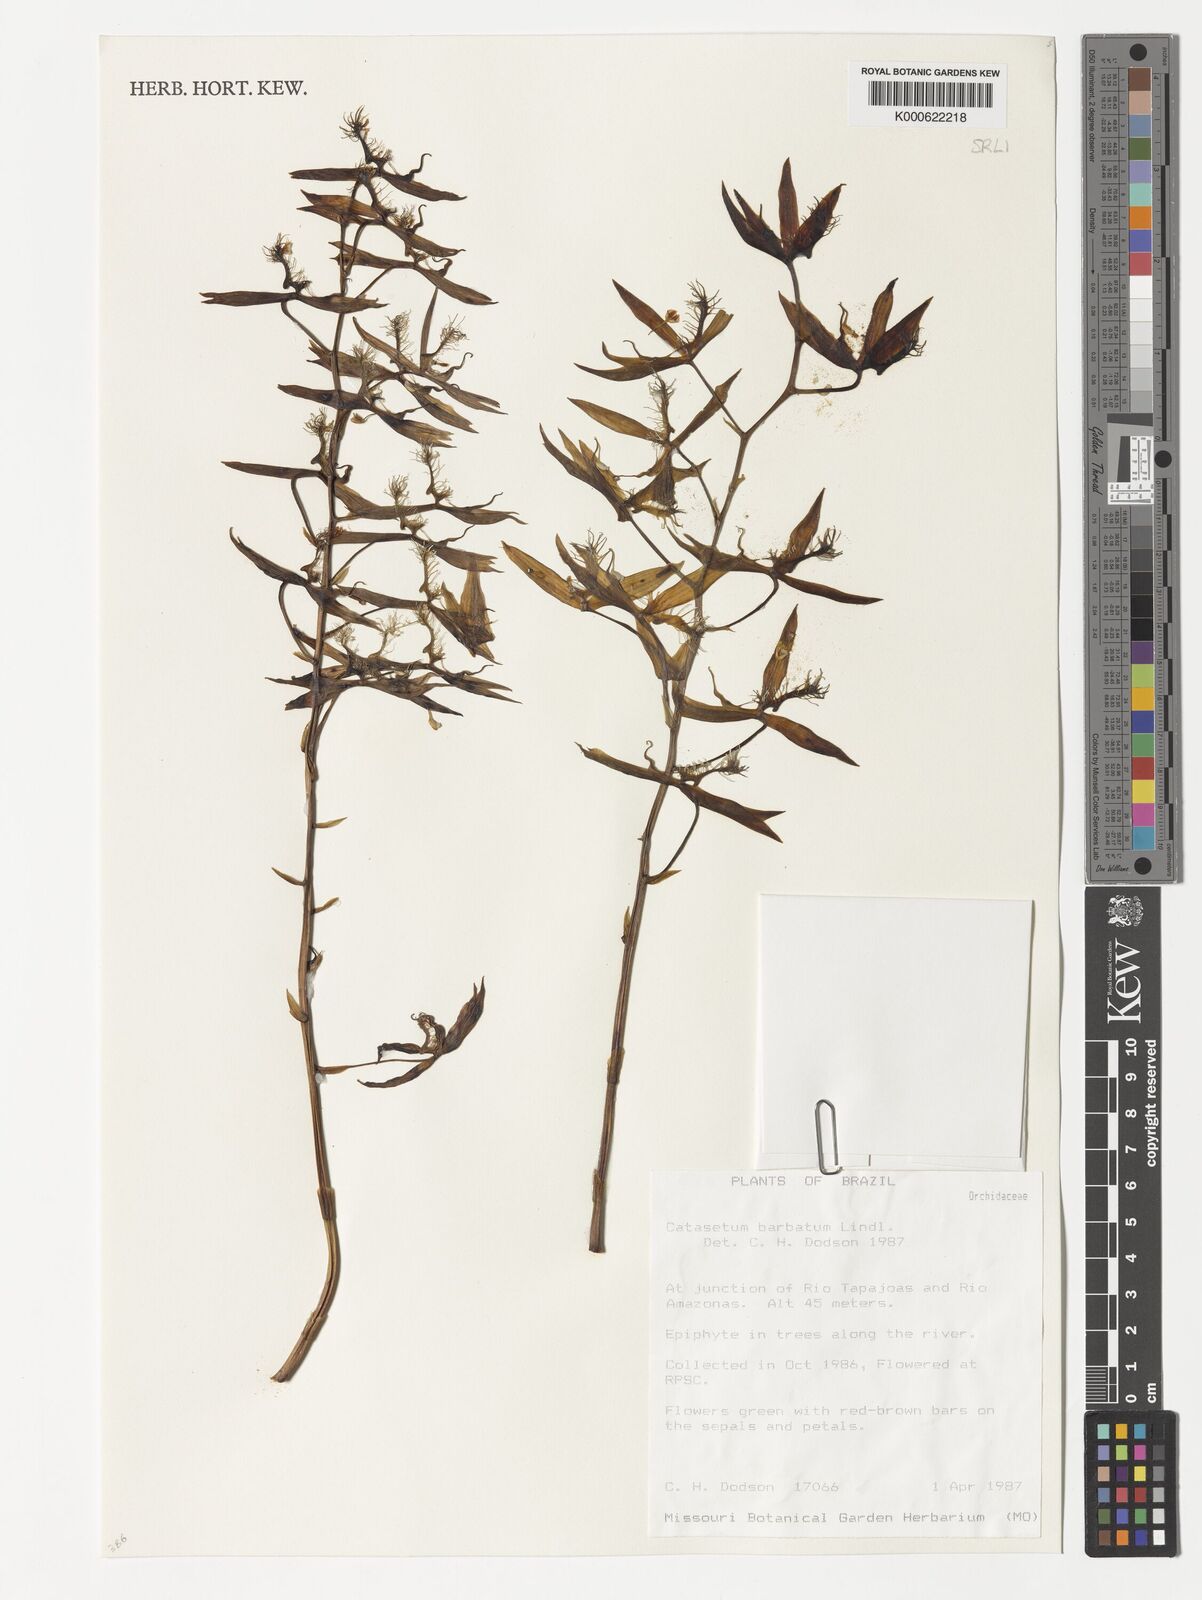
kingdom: Plantae
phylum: Tracheophyta
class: Liliopsida
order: Asparagales
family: Orchidaceae
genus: Catasetum
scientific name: Catasetum barbatum
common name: Bearded catasetum
